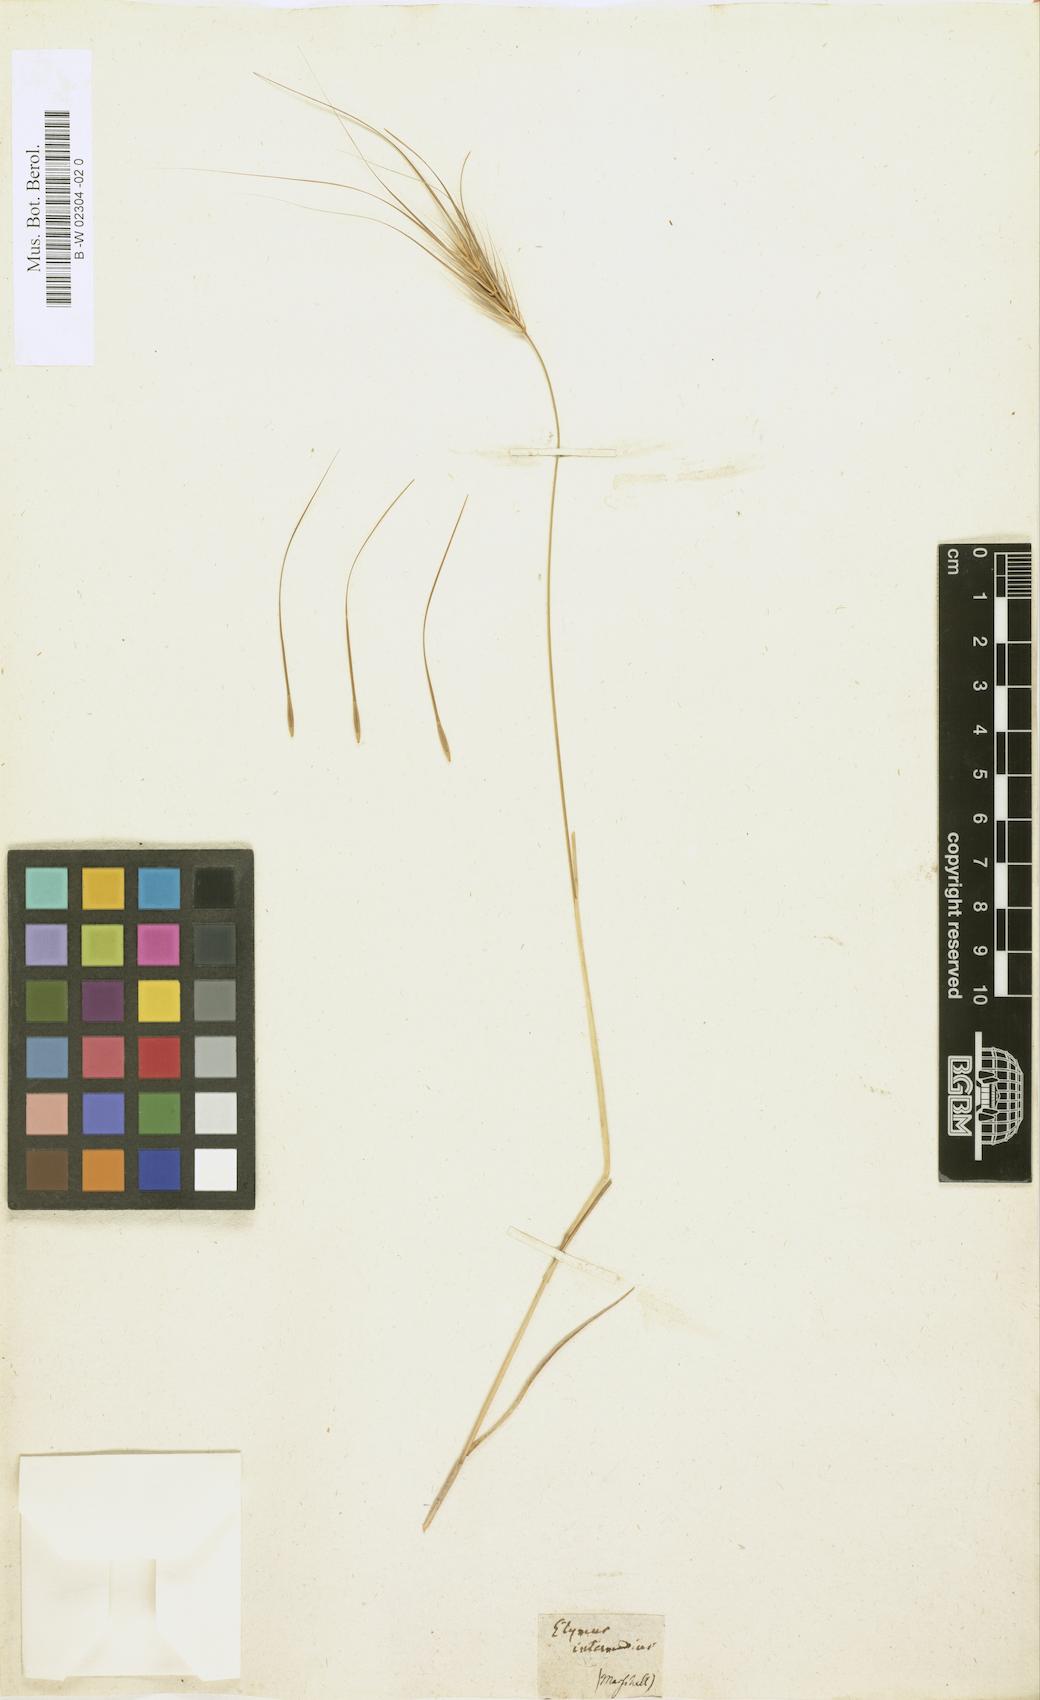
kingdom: Plantae
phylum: Tracheophyta
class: Liliopsida
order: Poales
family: Poaceae
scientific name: Poaceae
